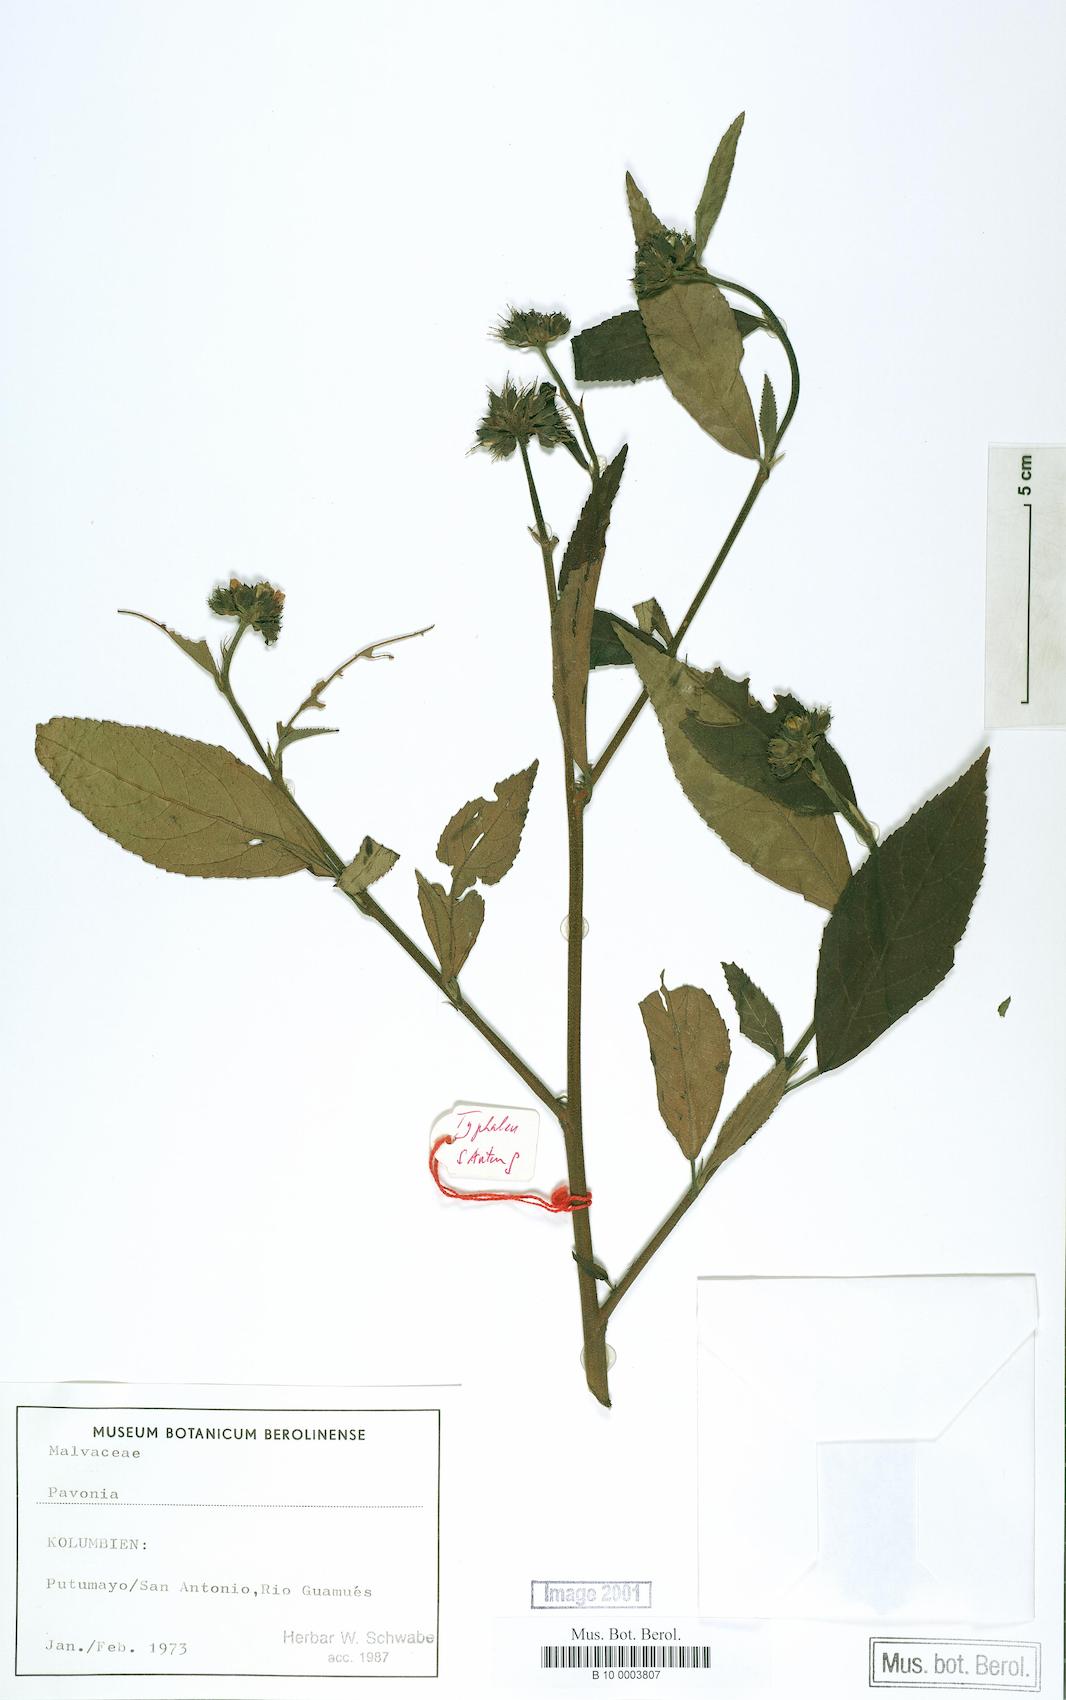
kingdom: Plantae
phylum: Tracheophyta
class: Magnoliopsida
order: Malvales
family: Malvaceae
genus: Pavonia
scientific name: Pavonia
